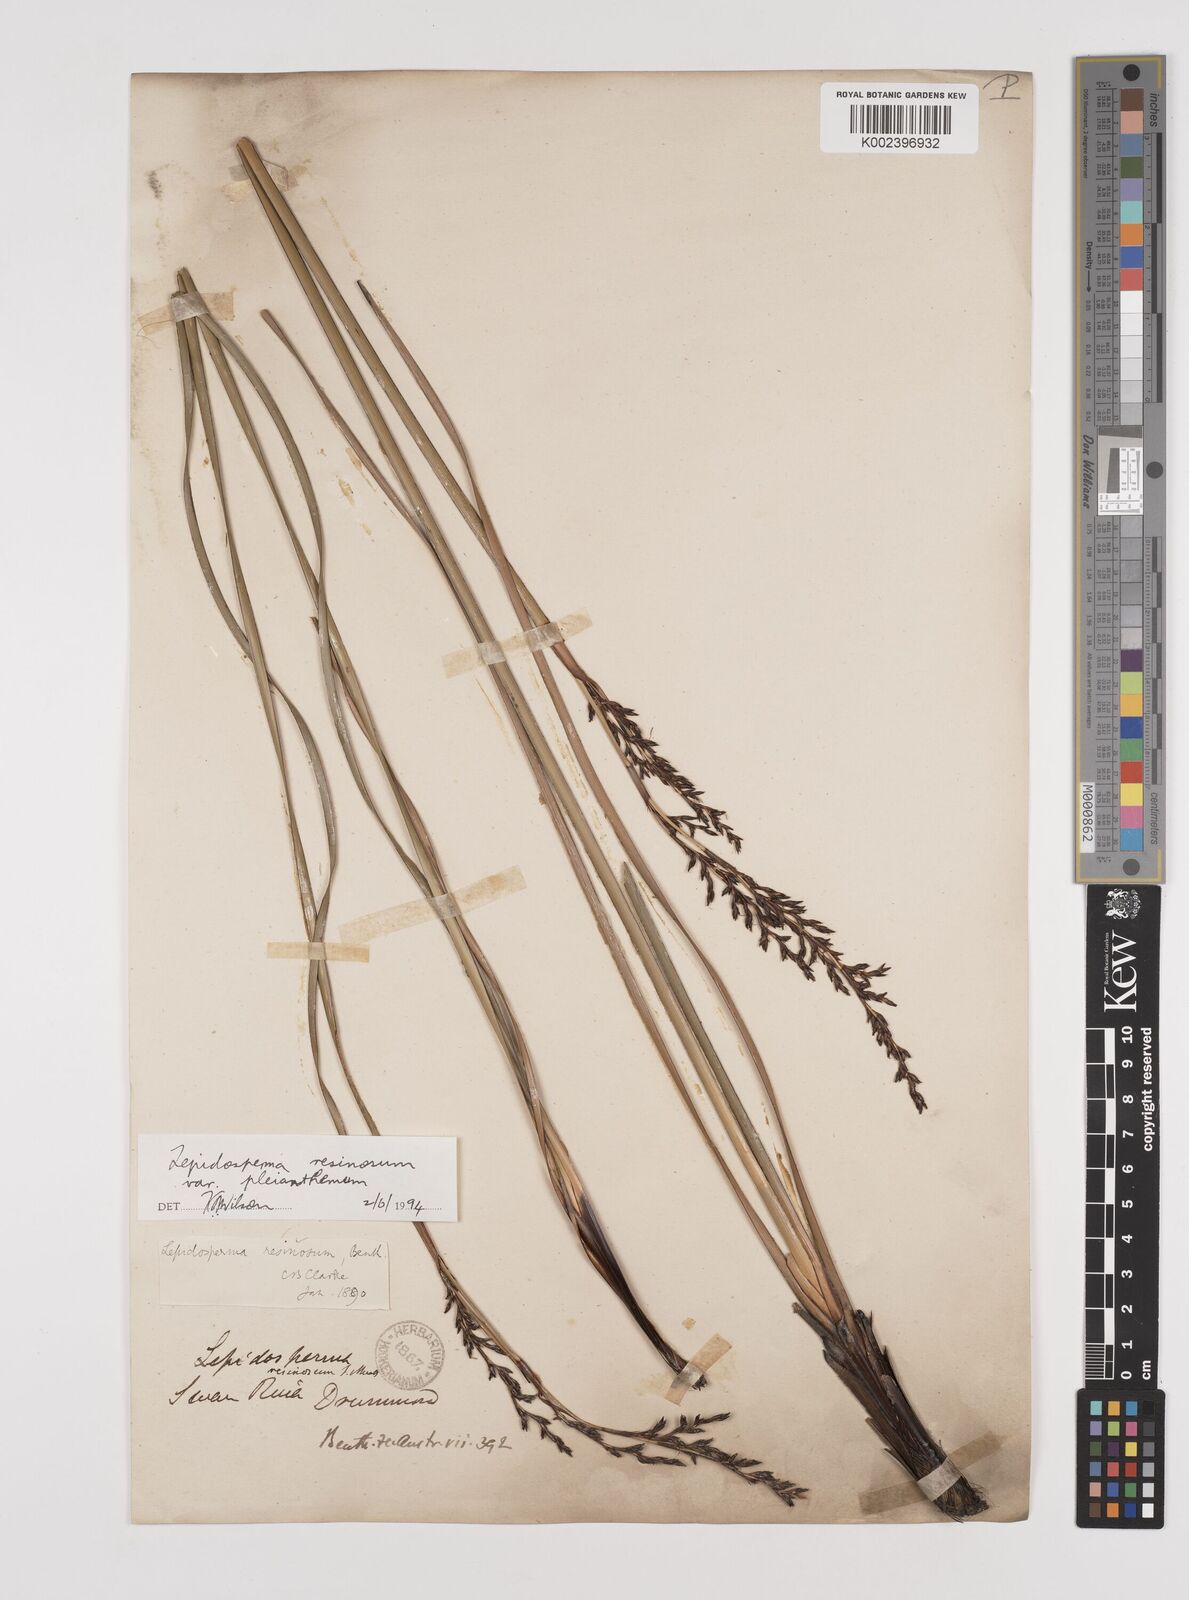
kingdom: Plantae
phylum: Tracheophyta
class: Liliopsida
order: Poales
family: Cyperaceae
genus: Lepidosperma
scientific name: Lepidosperma resinosum
